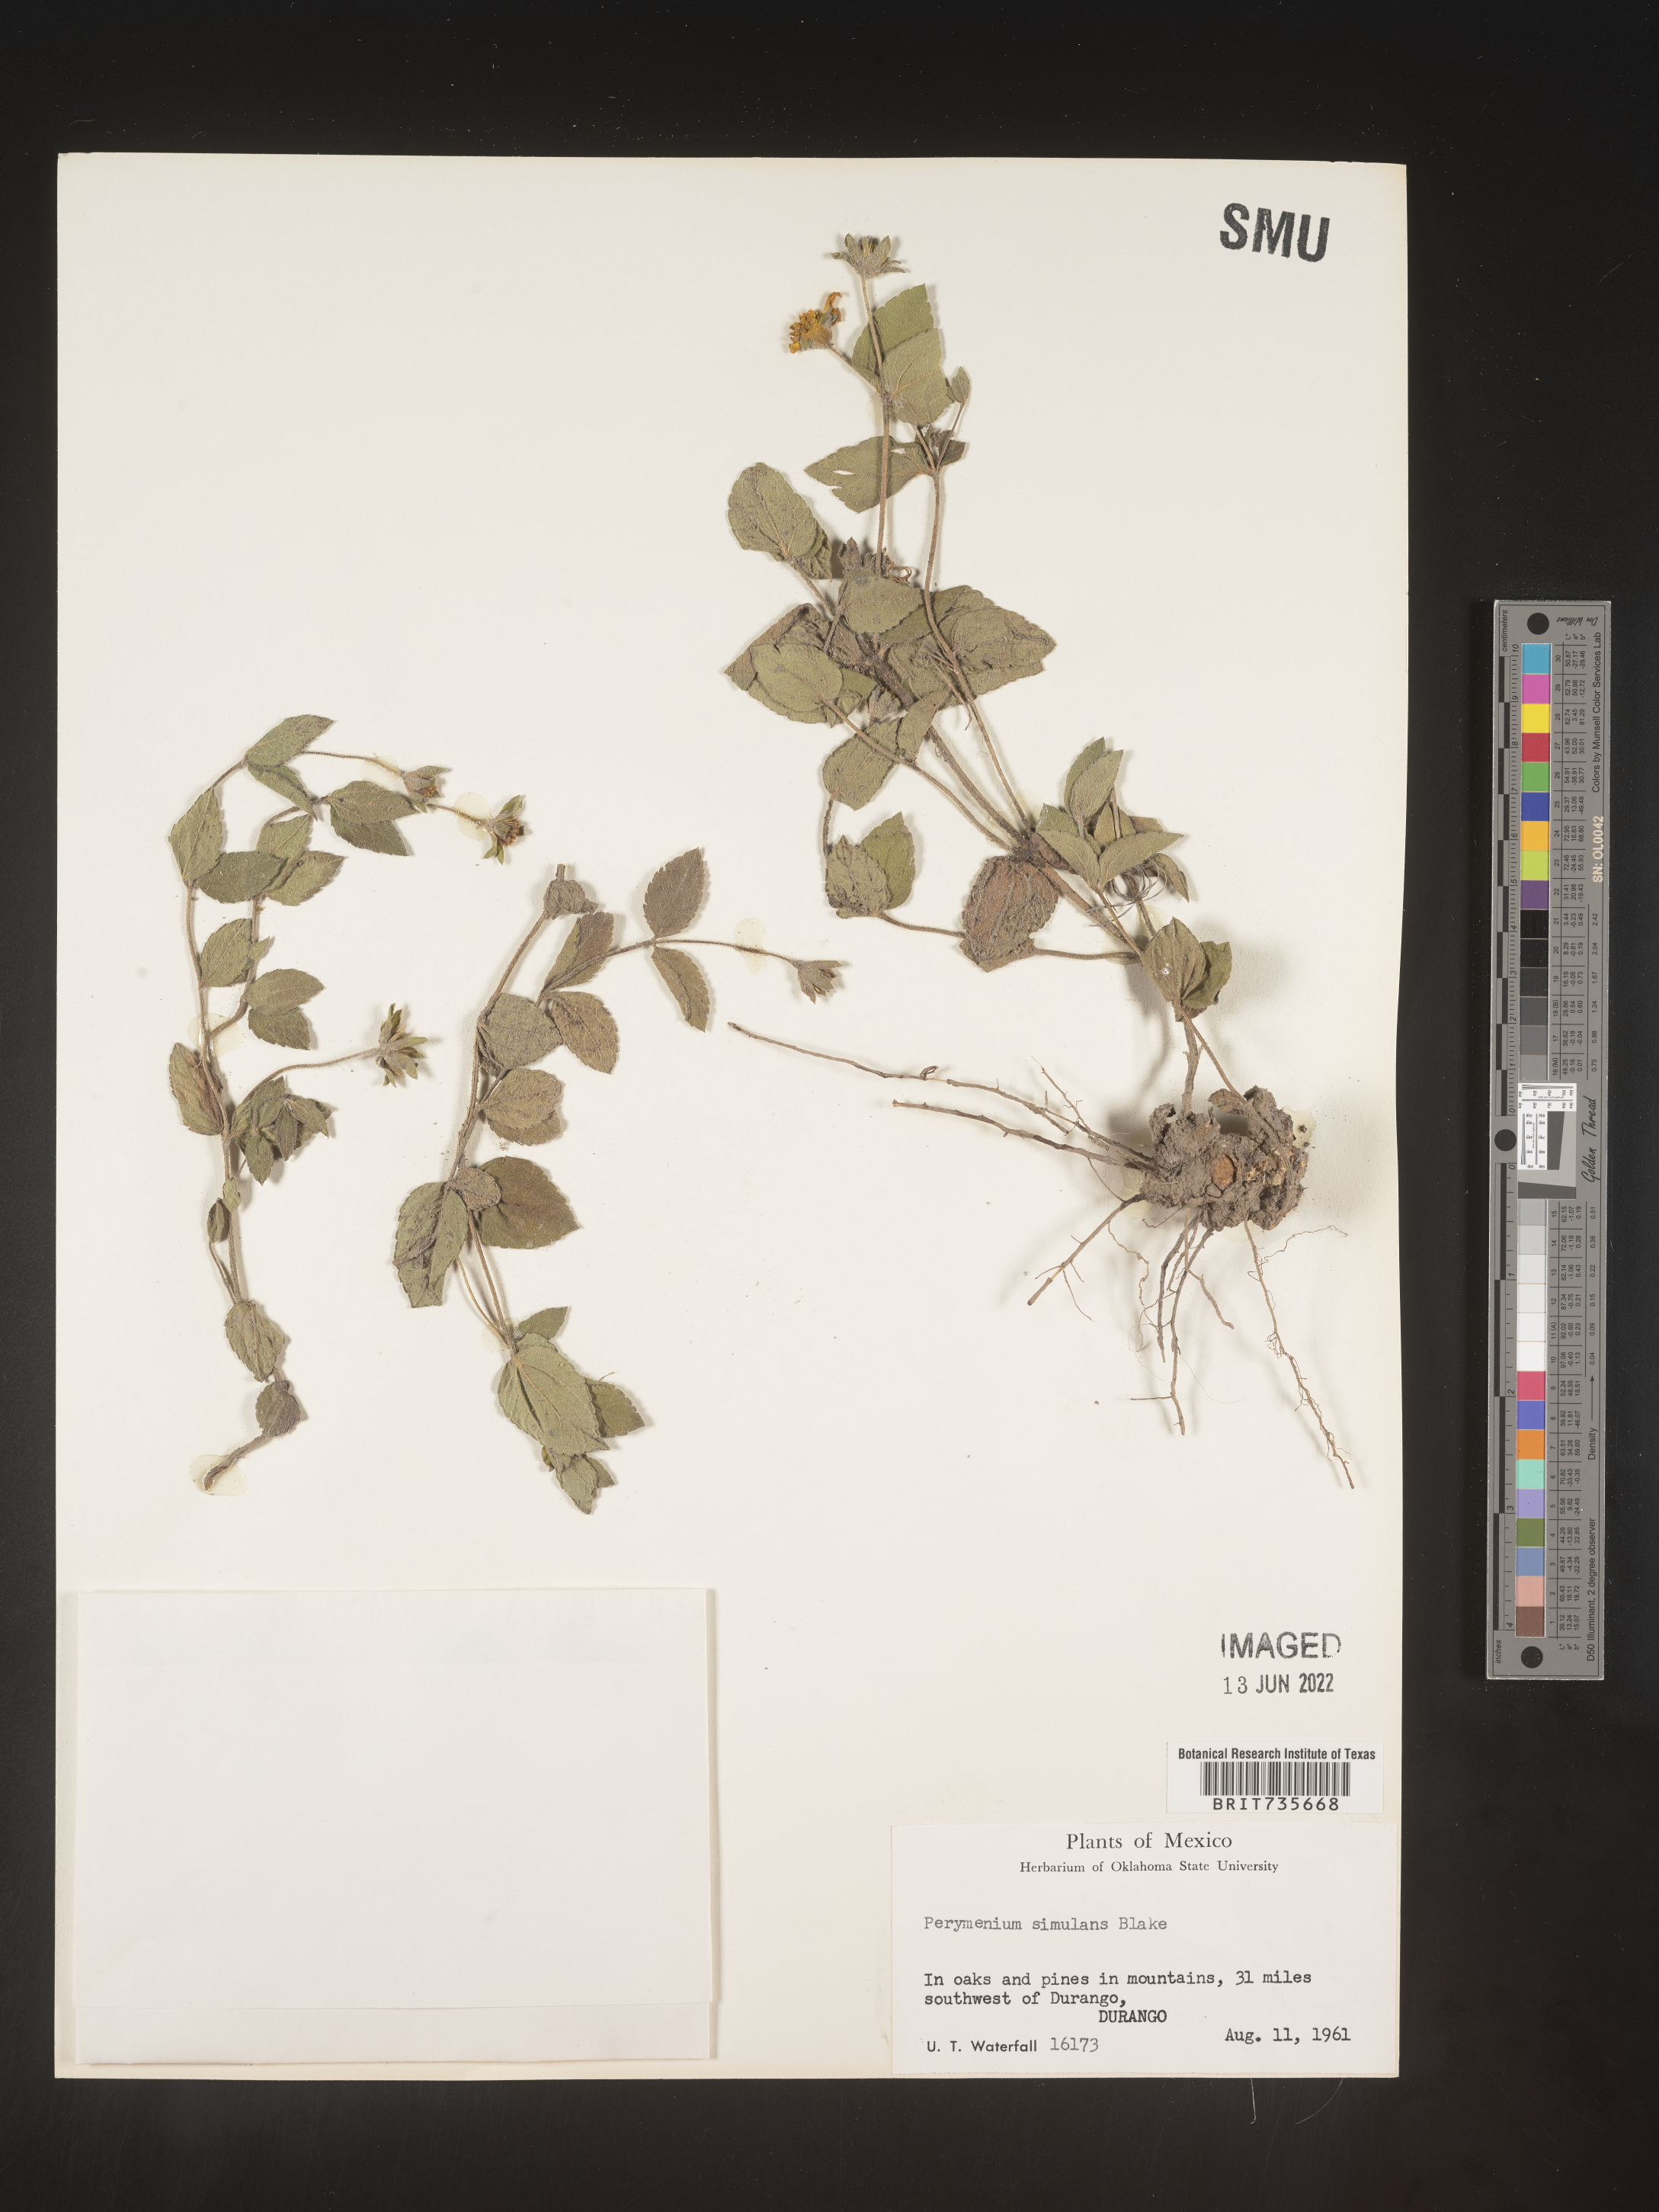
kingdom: Plantae
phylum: Tracheophyta
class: Magnoliopsida
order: Asterales
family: Asteraceae
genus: Perymenium
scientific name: Perymenium
